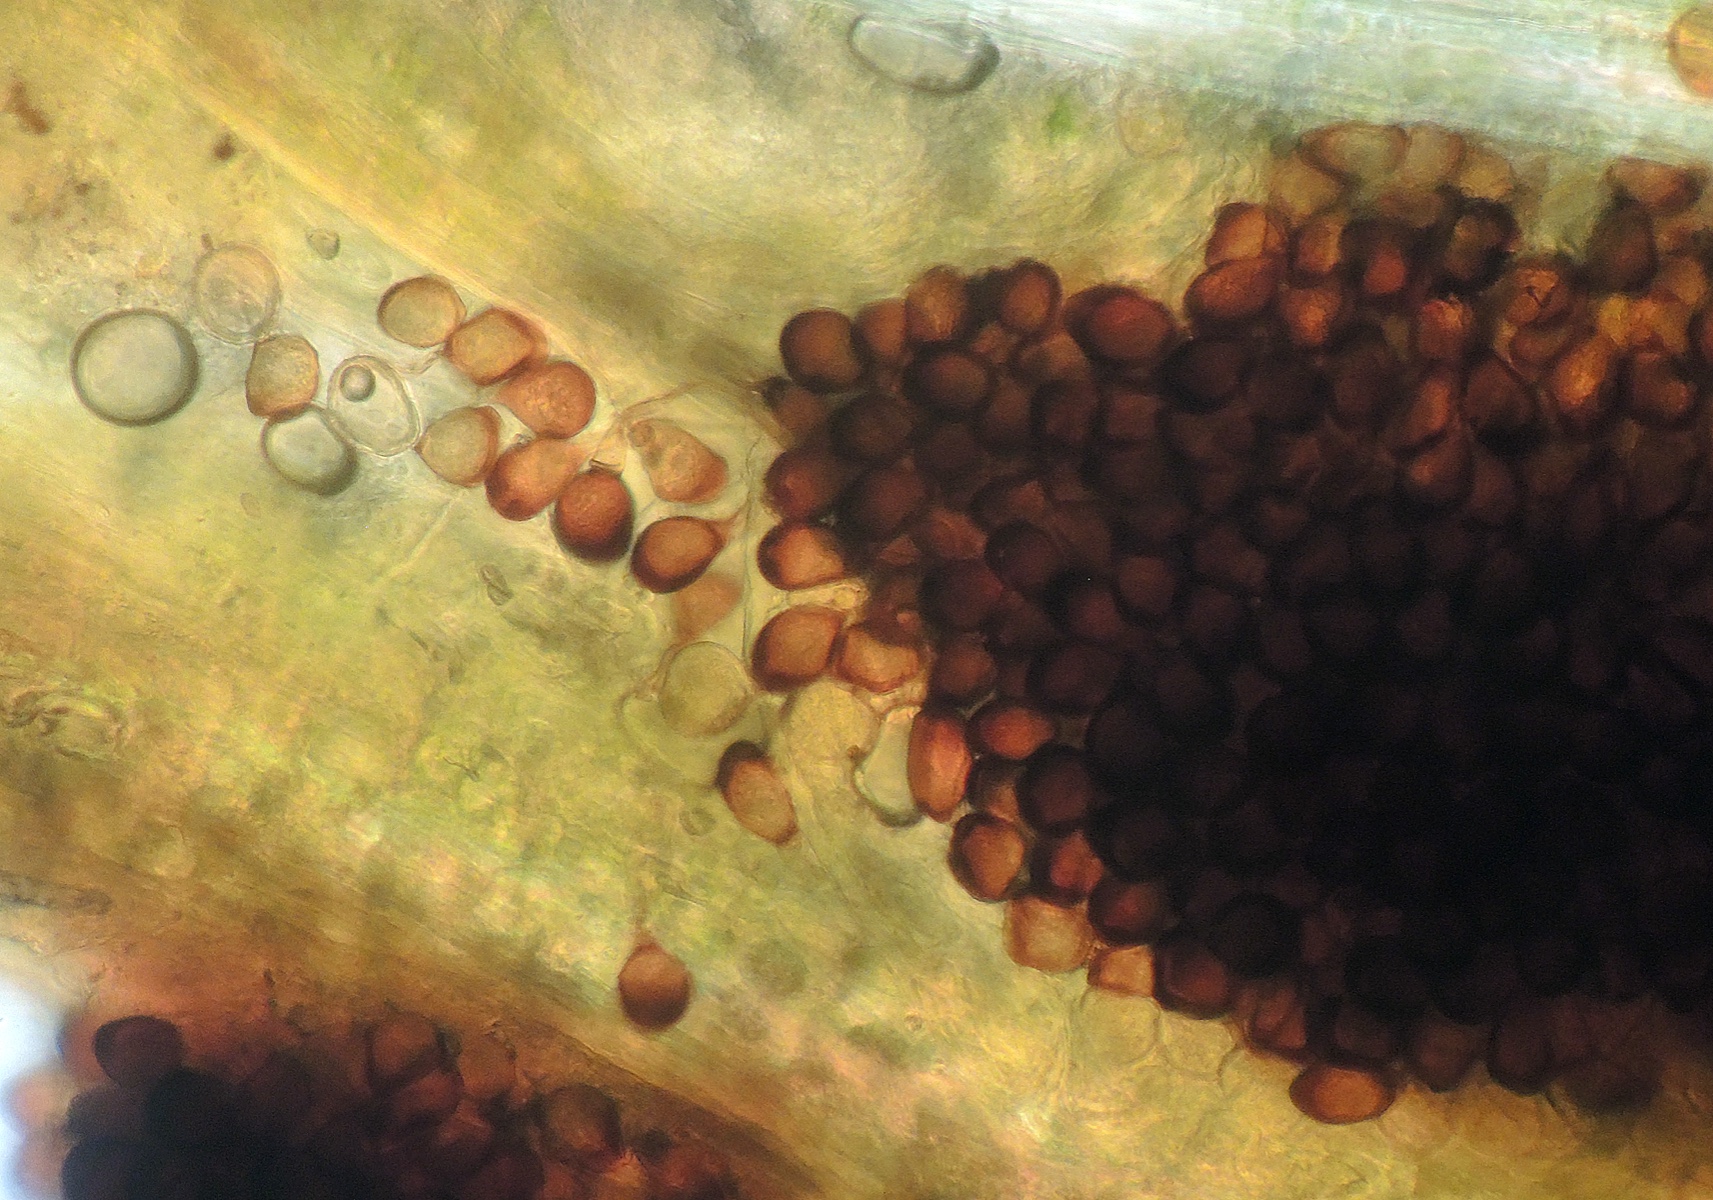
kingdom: Fungi
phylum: Basidiomycota
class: Pucciniomycetes
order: Pucciniales
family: Pucciniaceae
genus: Uromyces
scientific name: Uromyces ervi
